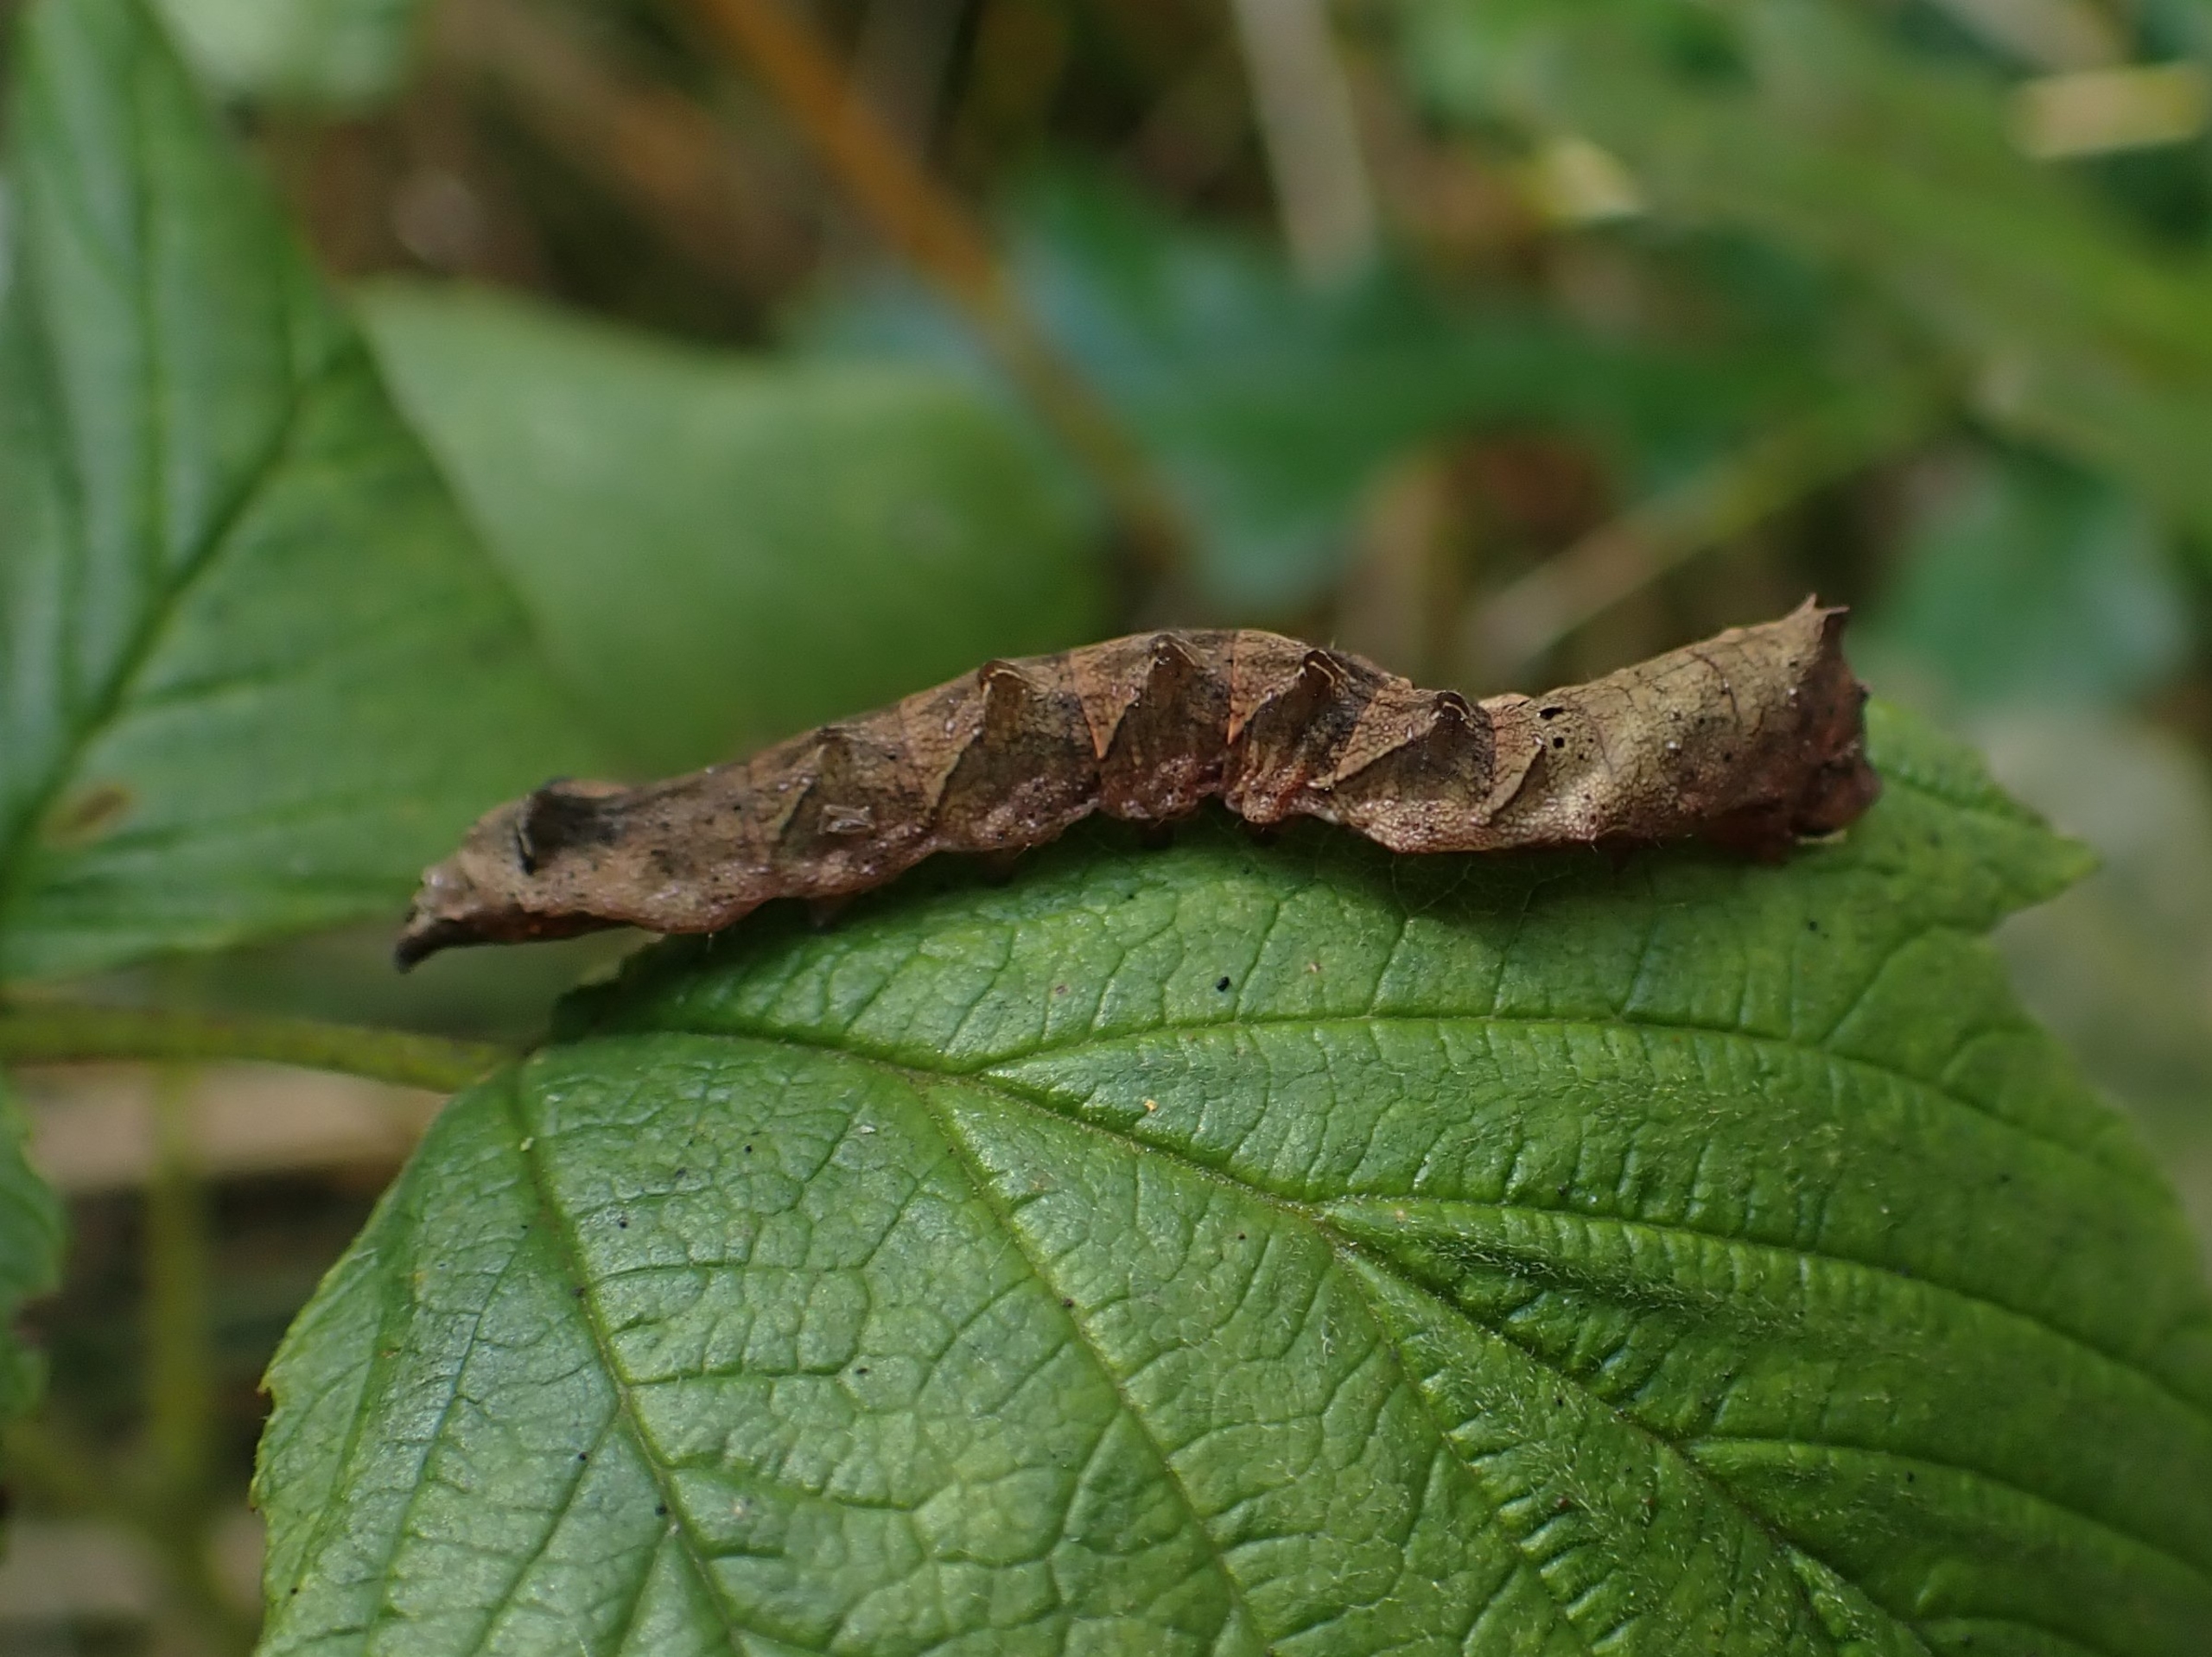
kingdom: Animalia
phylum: Arthropoda
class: Insecta
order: Lepidoptera
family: Drepanidae
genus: Thyatira
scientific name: Thyatira batis
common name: Rosenplet
